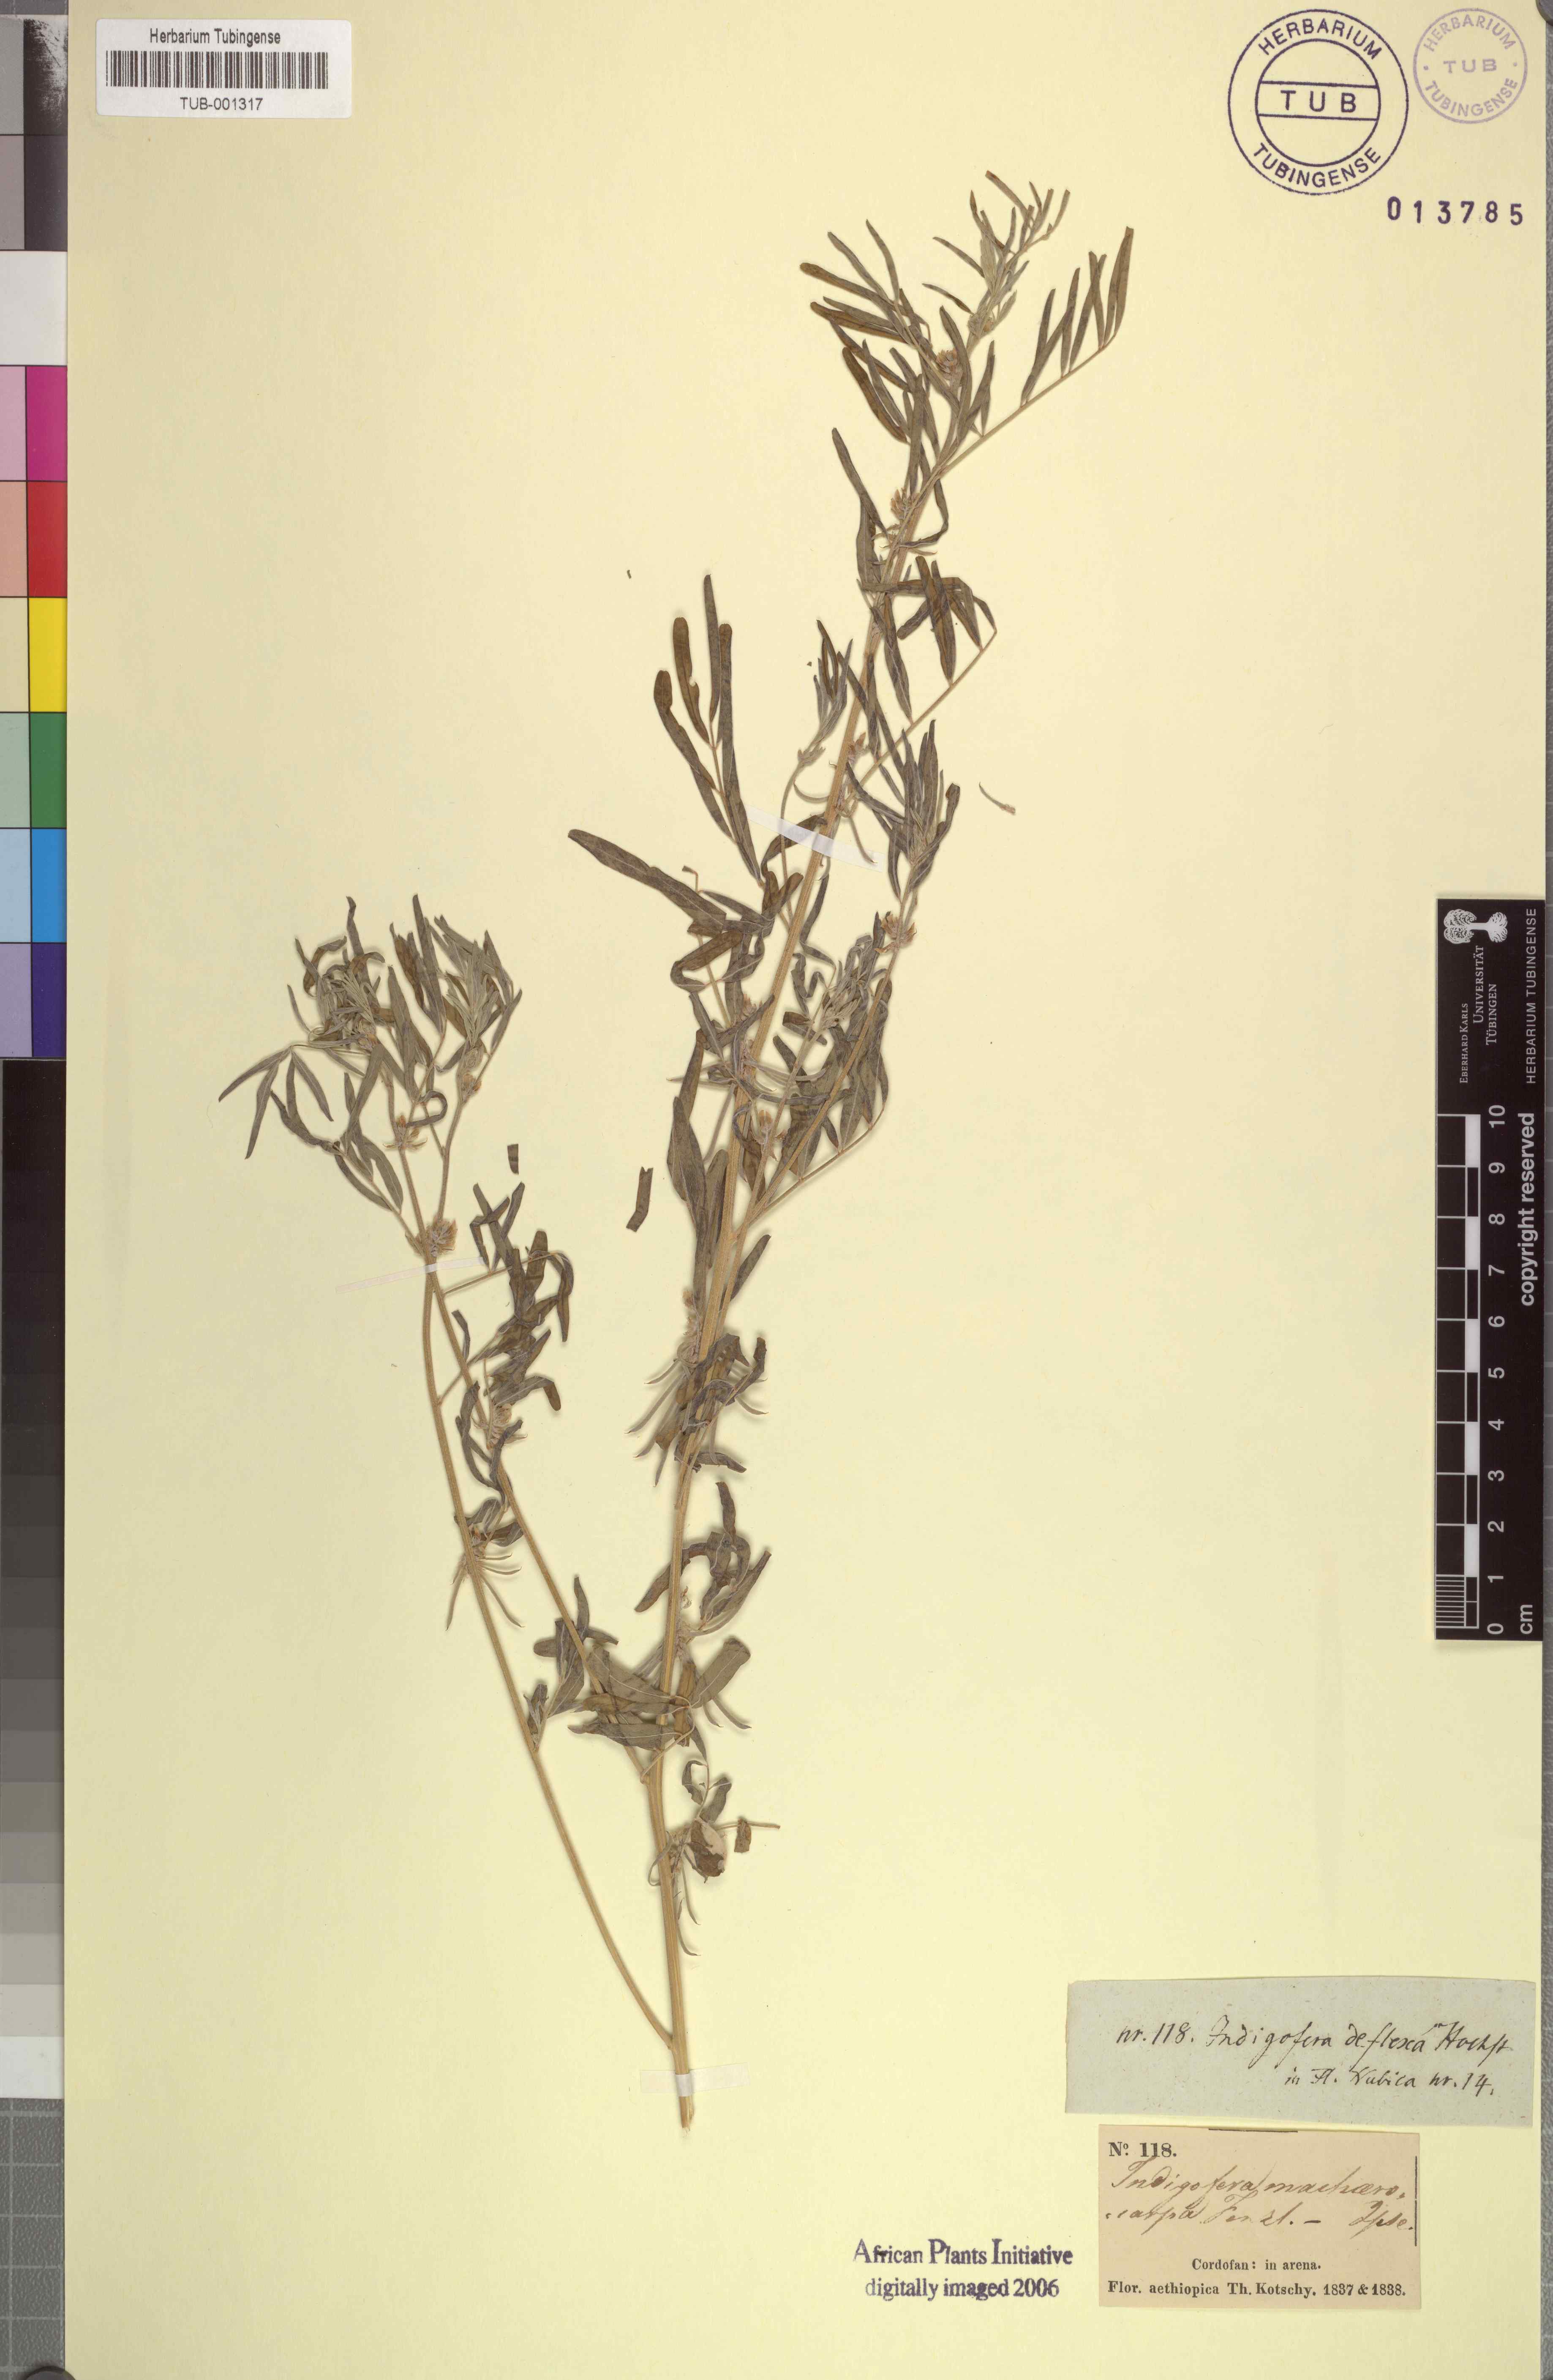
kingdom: Plantae
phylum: Tracheophyta
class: Magnoliopsida
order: Fabales
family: Fabaceae
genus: Indigastrum
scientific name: Indigastrum parviflorum
